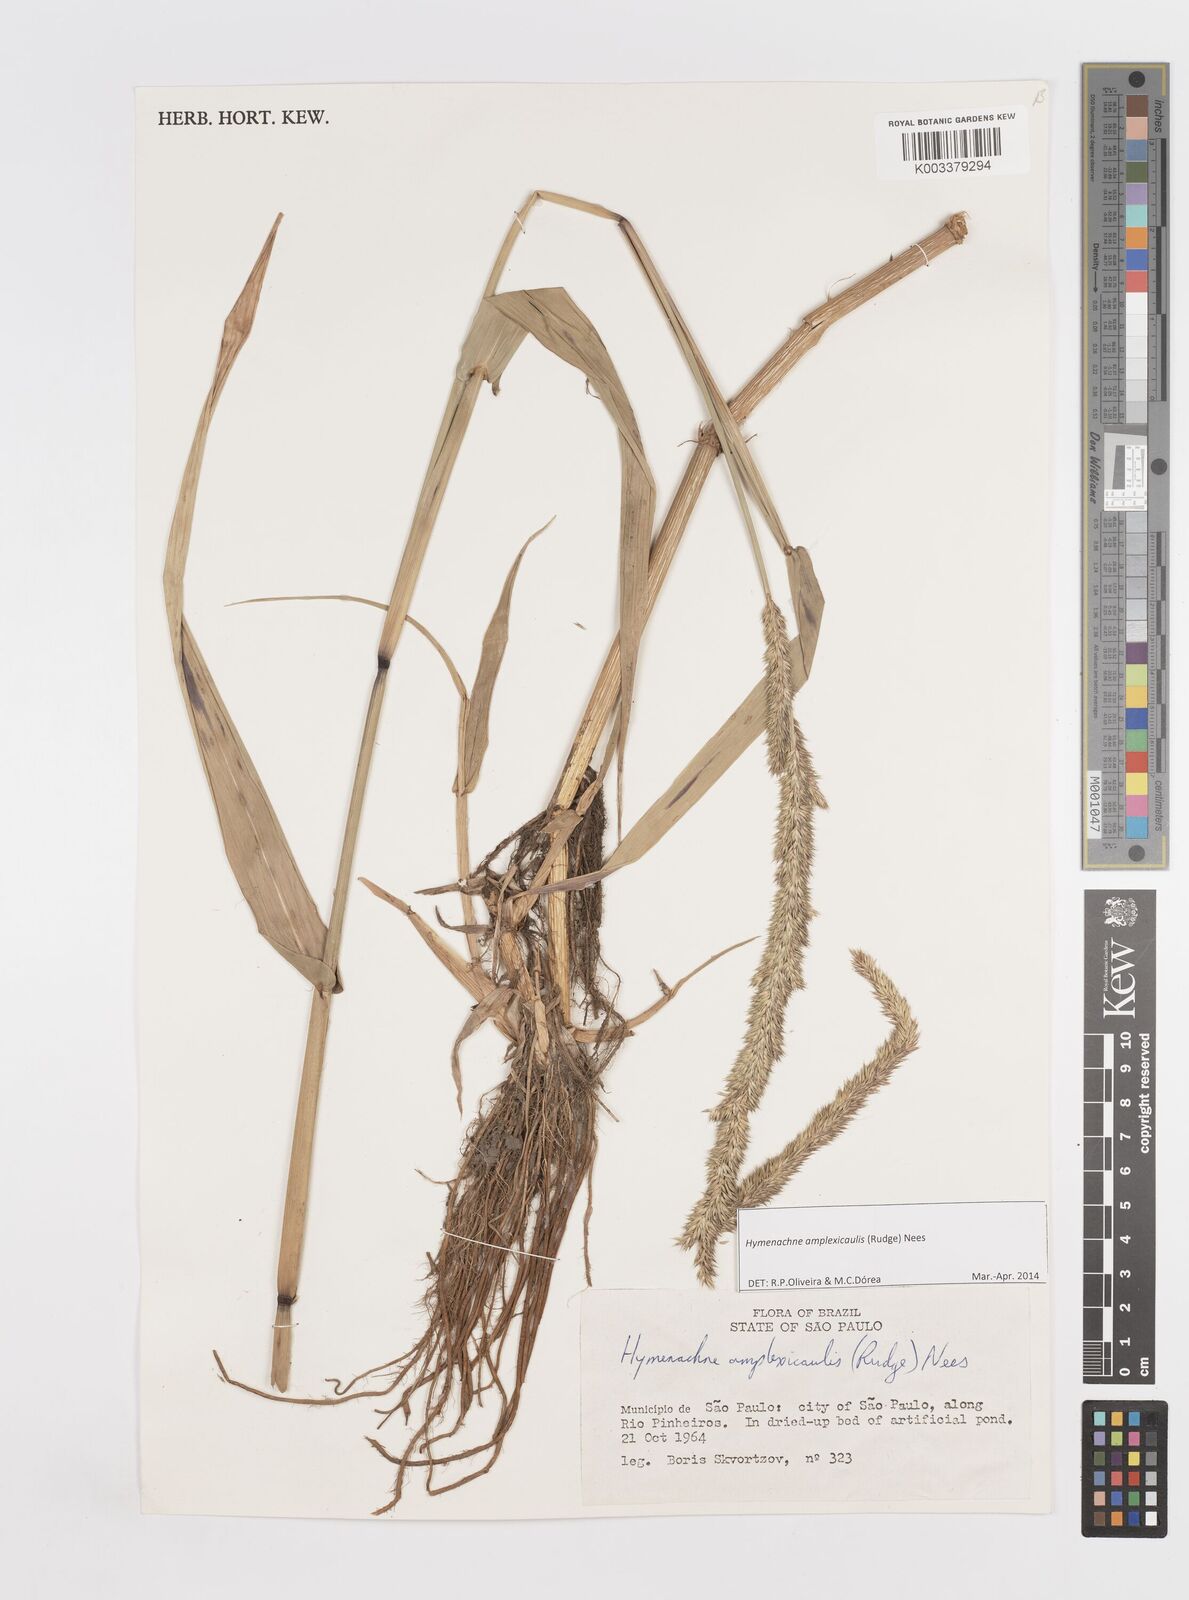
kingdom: Plantae
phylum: Tracheophyta
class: Liliopsida
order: Poales
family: Poaceae
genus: Hymenachne
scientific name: Hymenachne amplexicaulis
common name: Olive hymenachne
